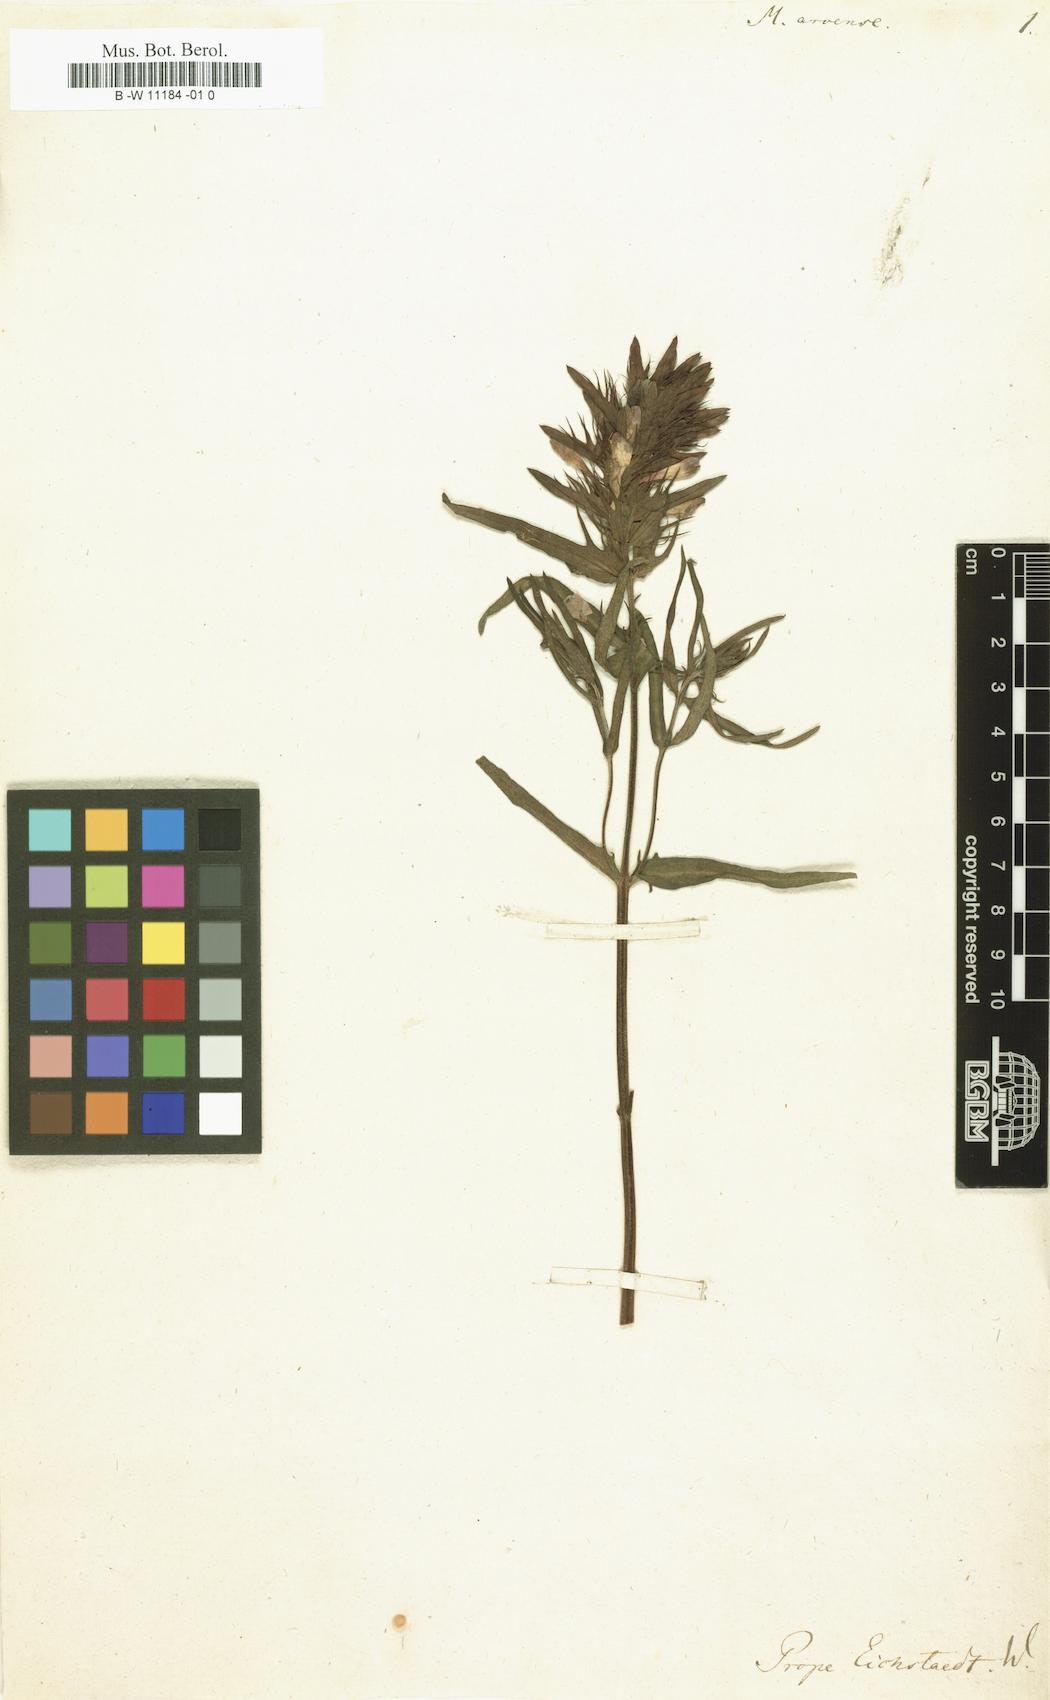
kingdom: Plantae
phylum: Tracheophyta
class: Magnoliopsida
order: Lamiales
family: Orobanchaceae
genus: Melampyrum
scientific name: Melampyrum arvense
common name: Field cow-wheat
